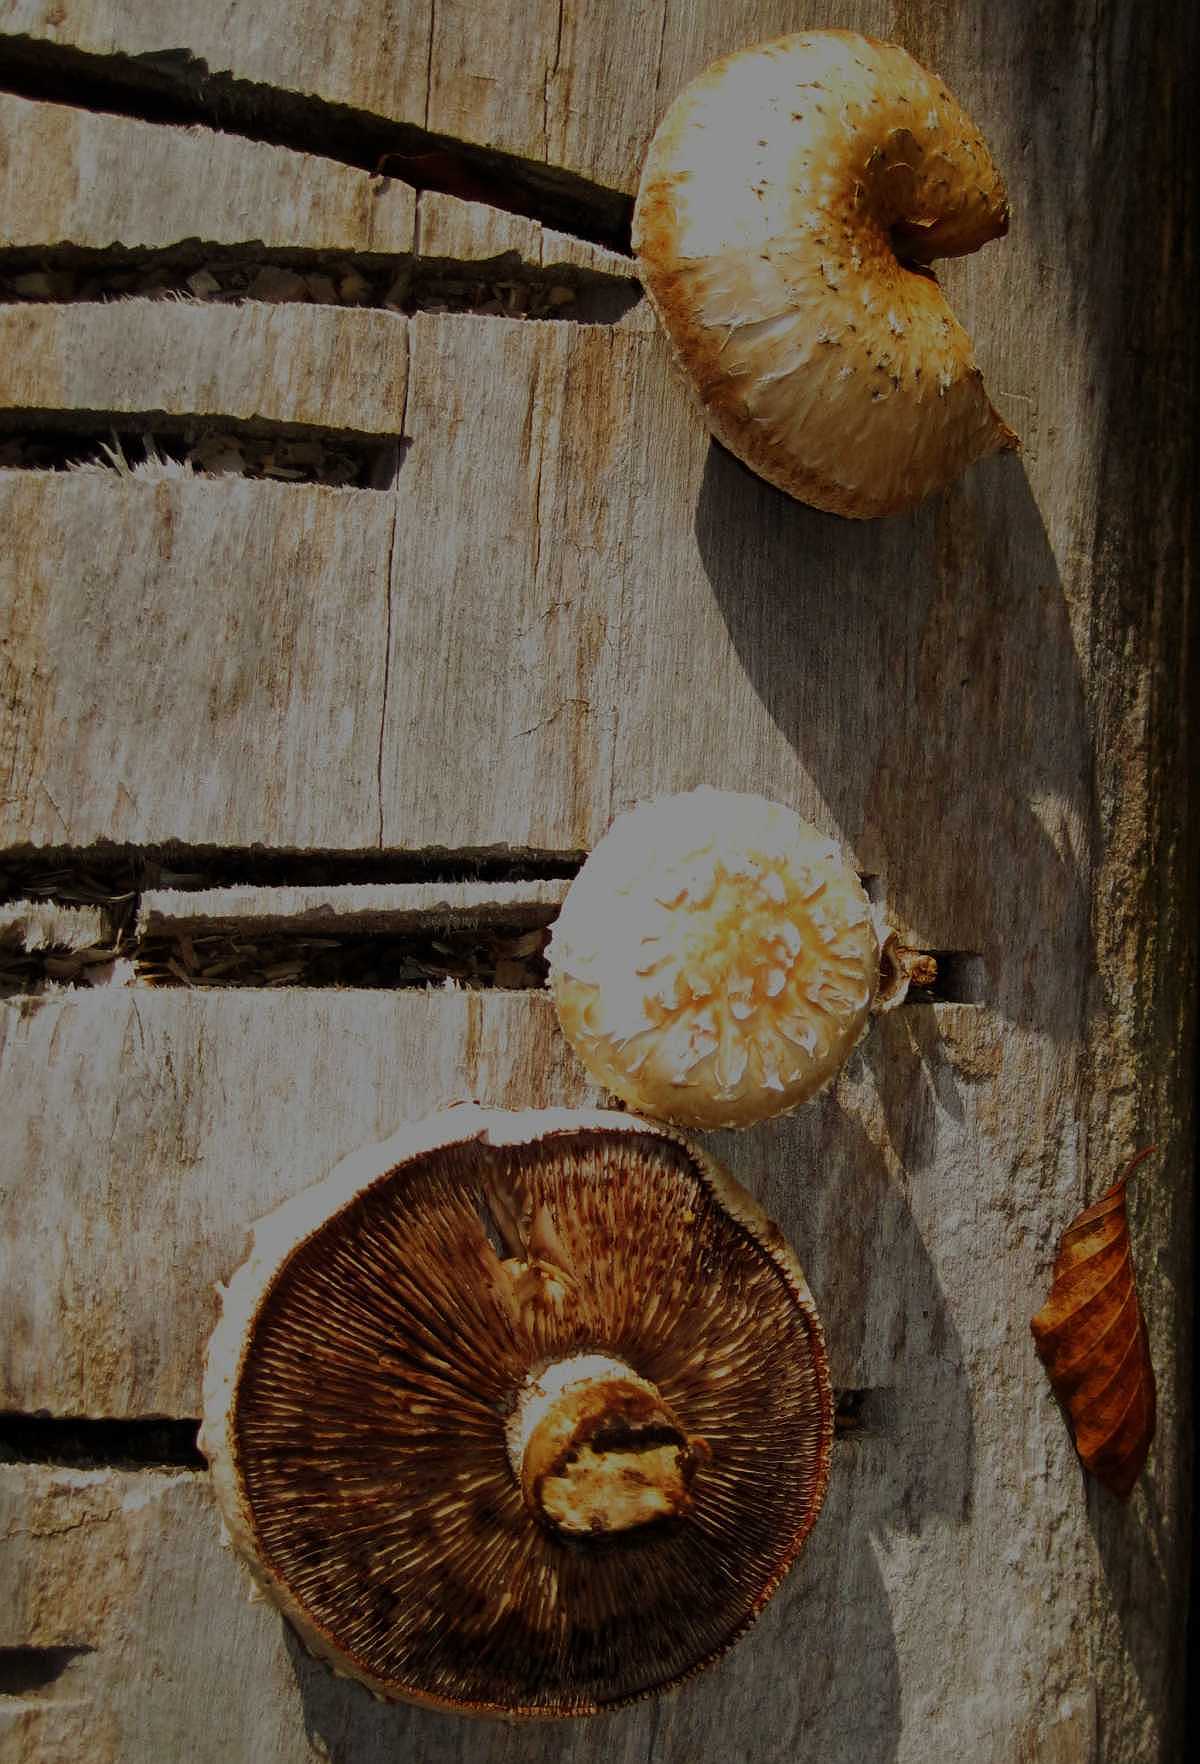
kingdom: Fungi
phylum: Basidiomycota
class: Agaricomycetes
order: Agaricales
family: Strophariaceae
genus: Pholiota
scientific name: Pholiota populnea
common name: poppel-kæmpeskælhat
